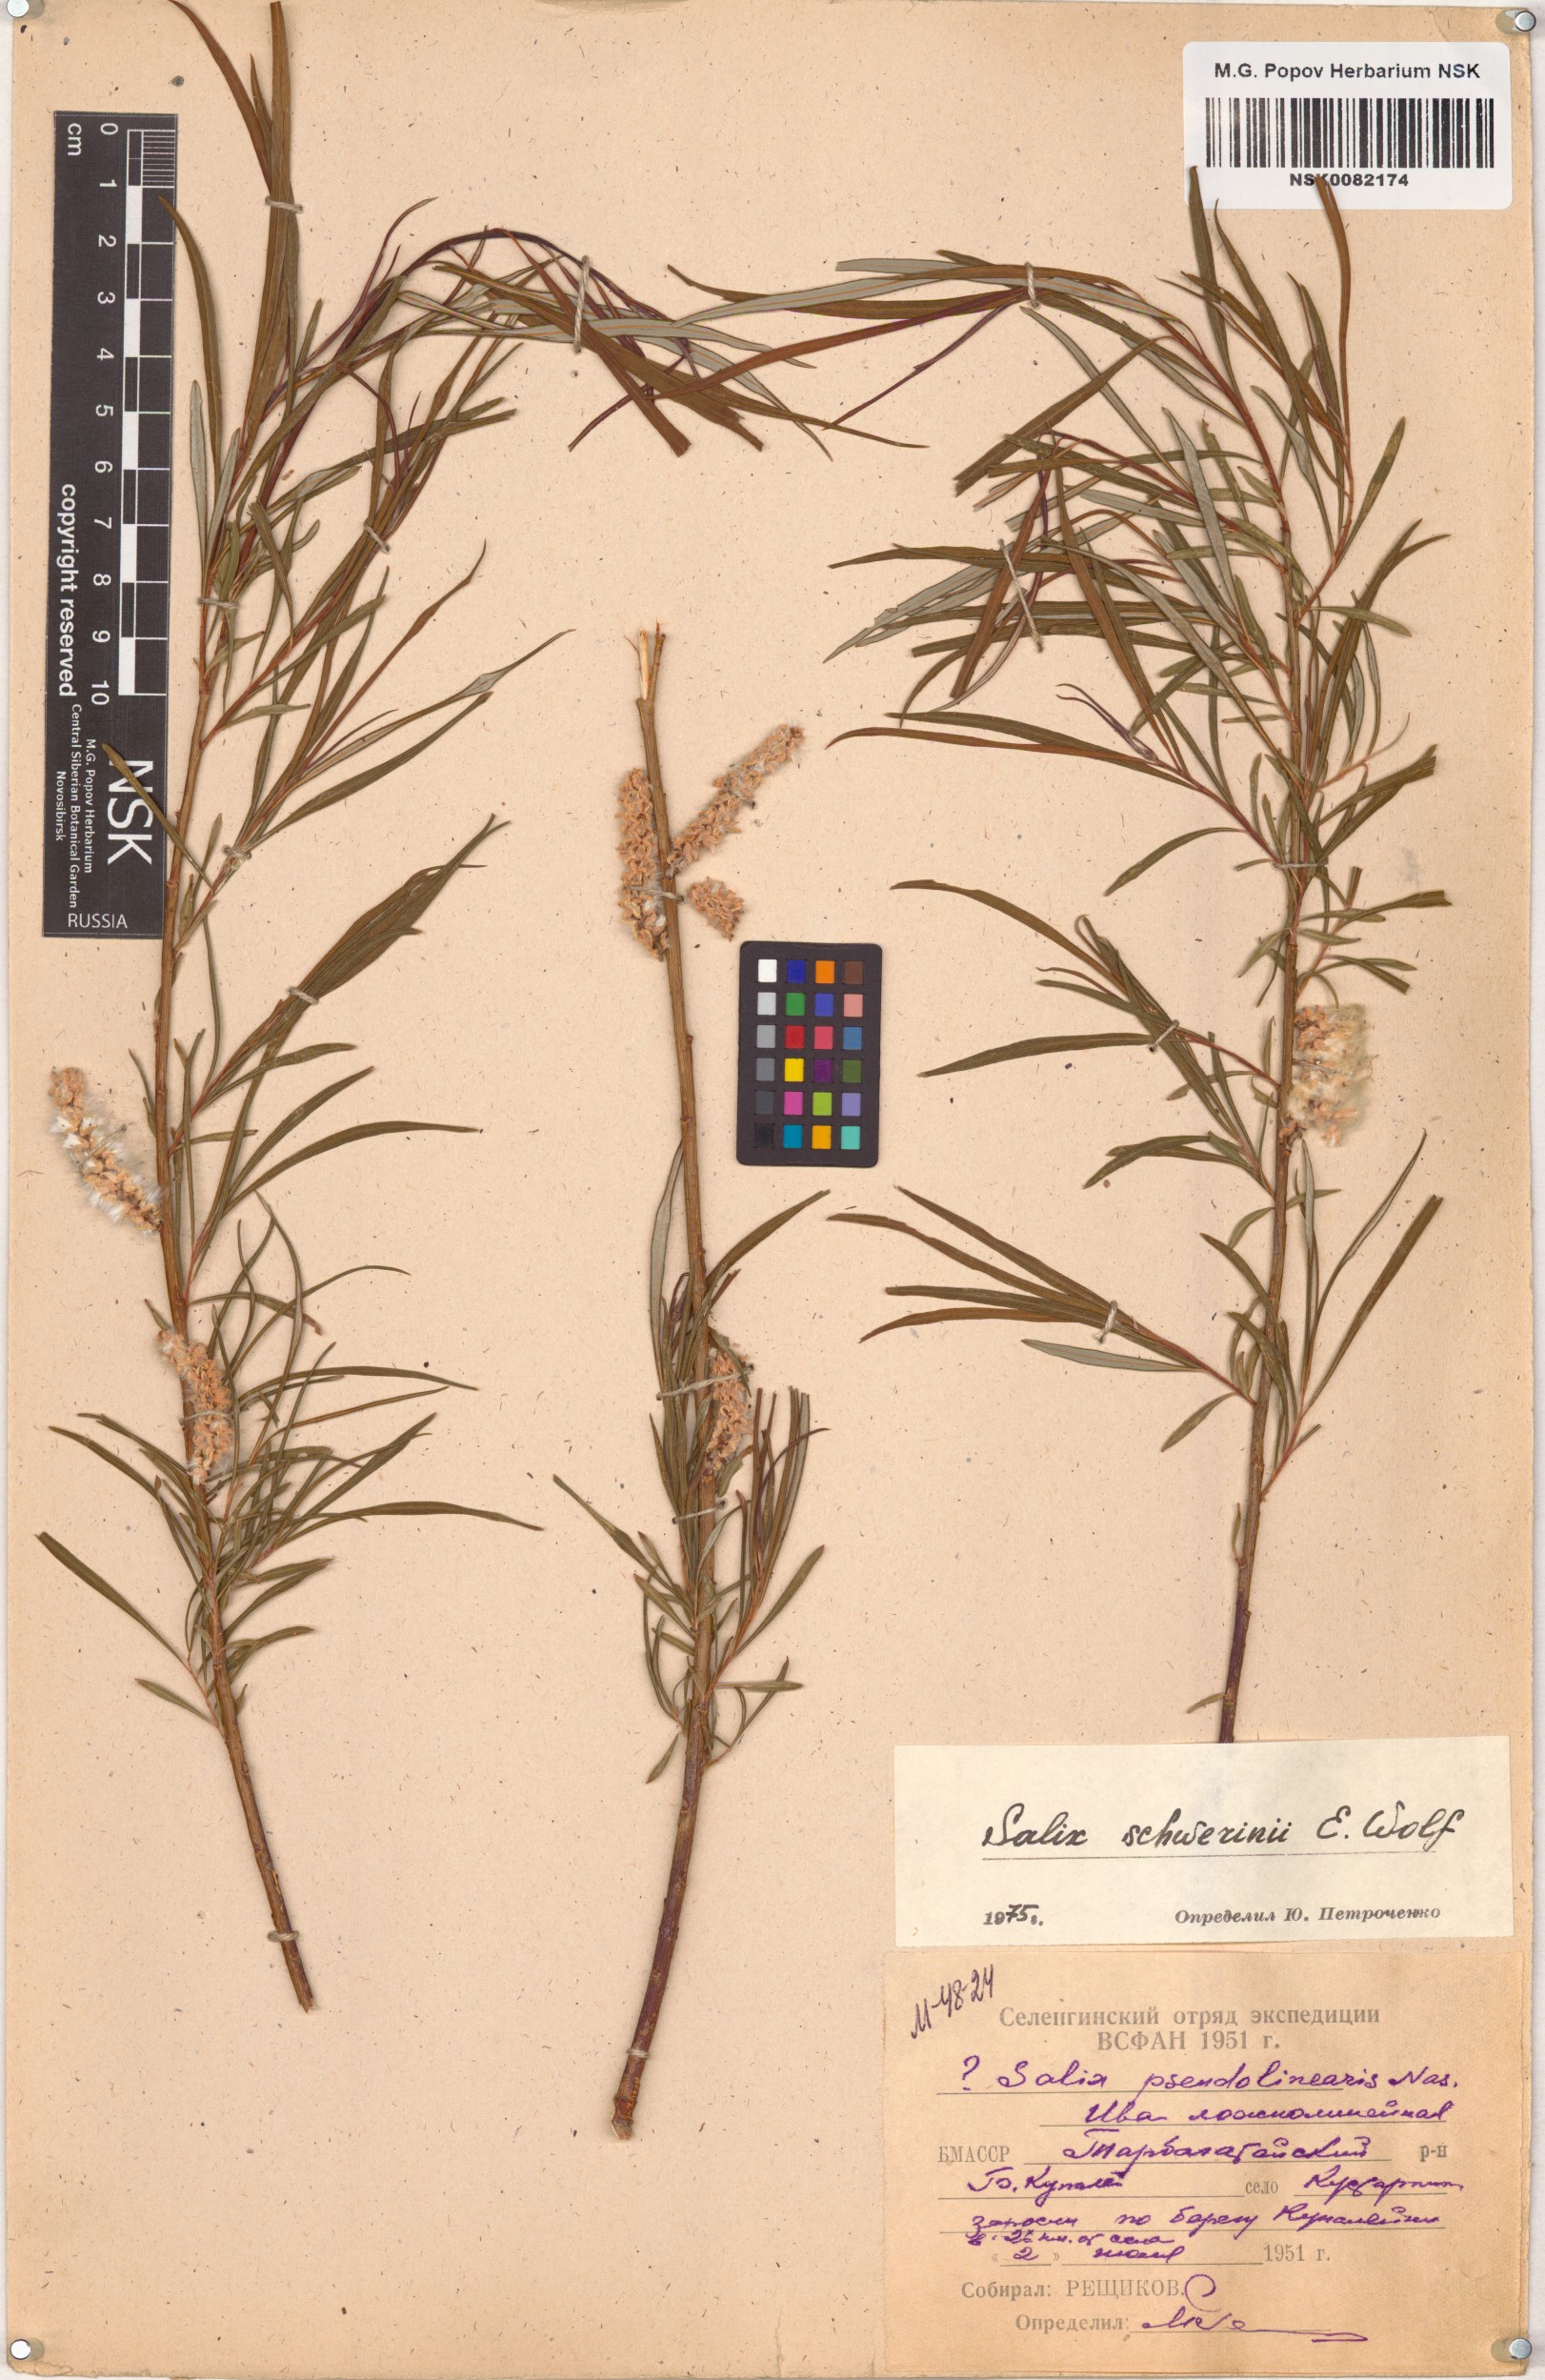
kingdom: Plantae
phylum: Tracheophyta
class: Magnoliopsida
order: Malpighiales
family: Salicaceae
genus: Salix
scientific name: Salix schwerinii
